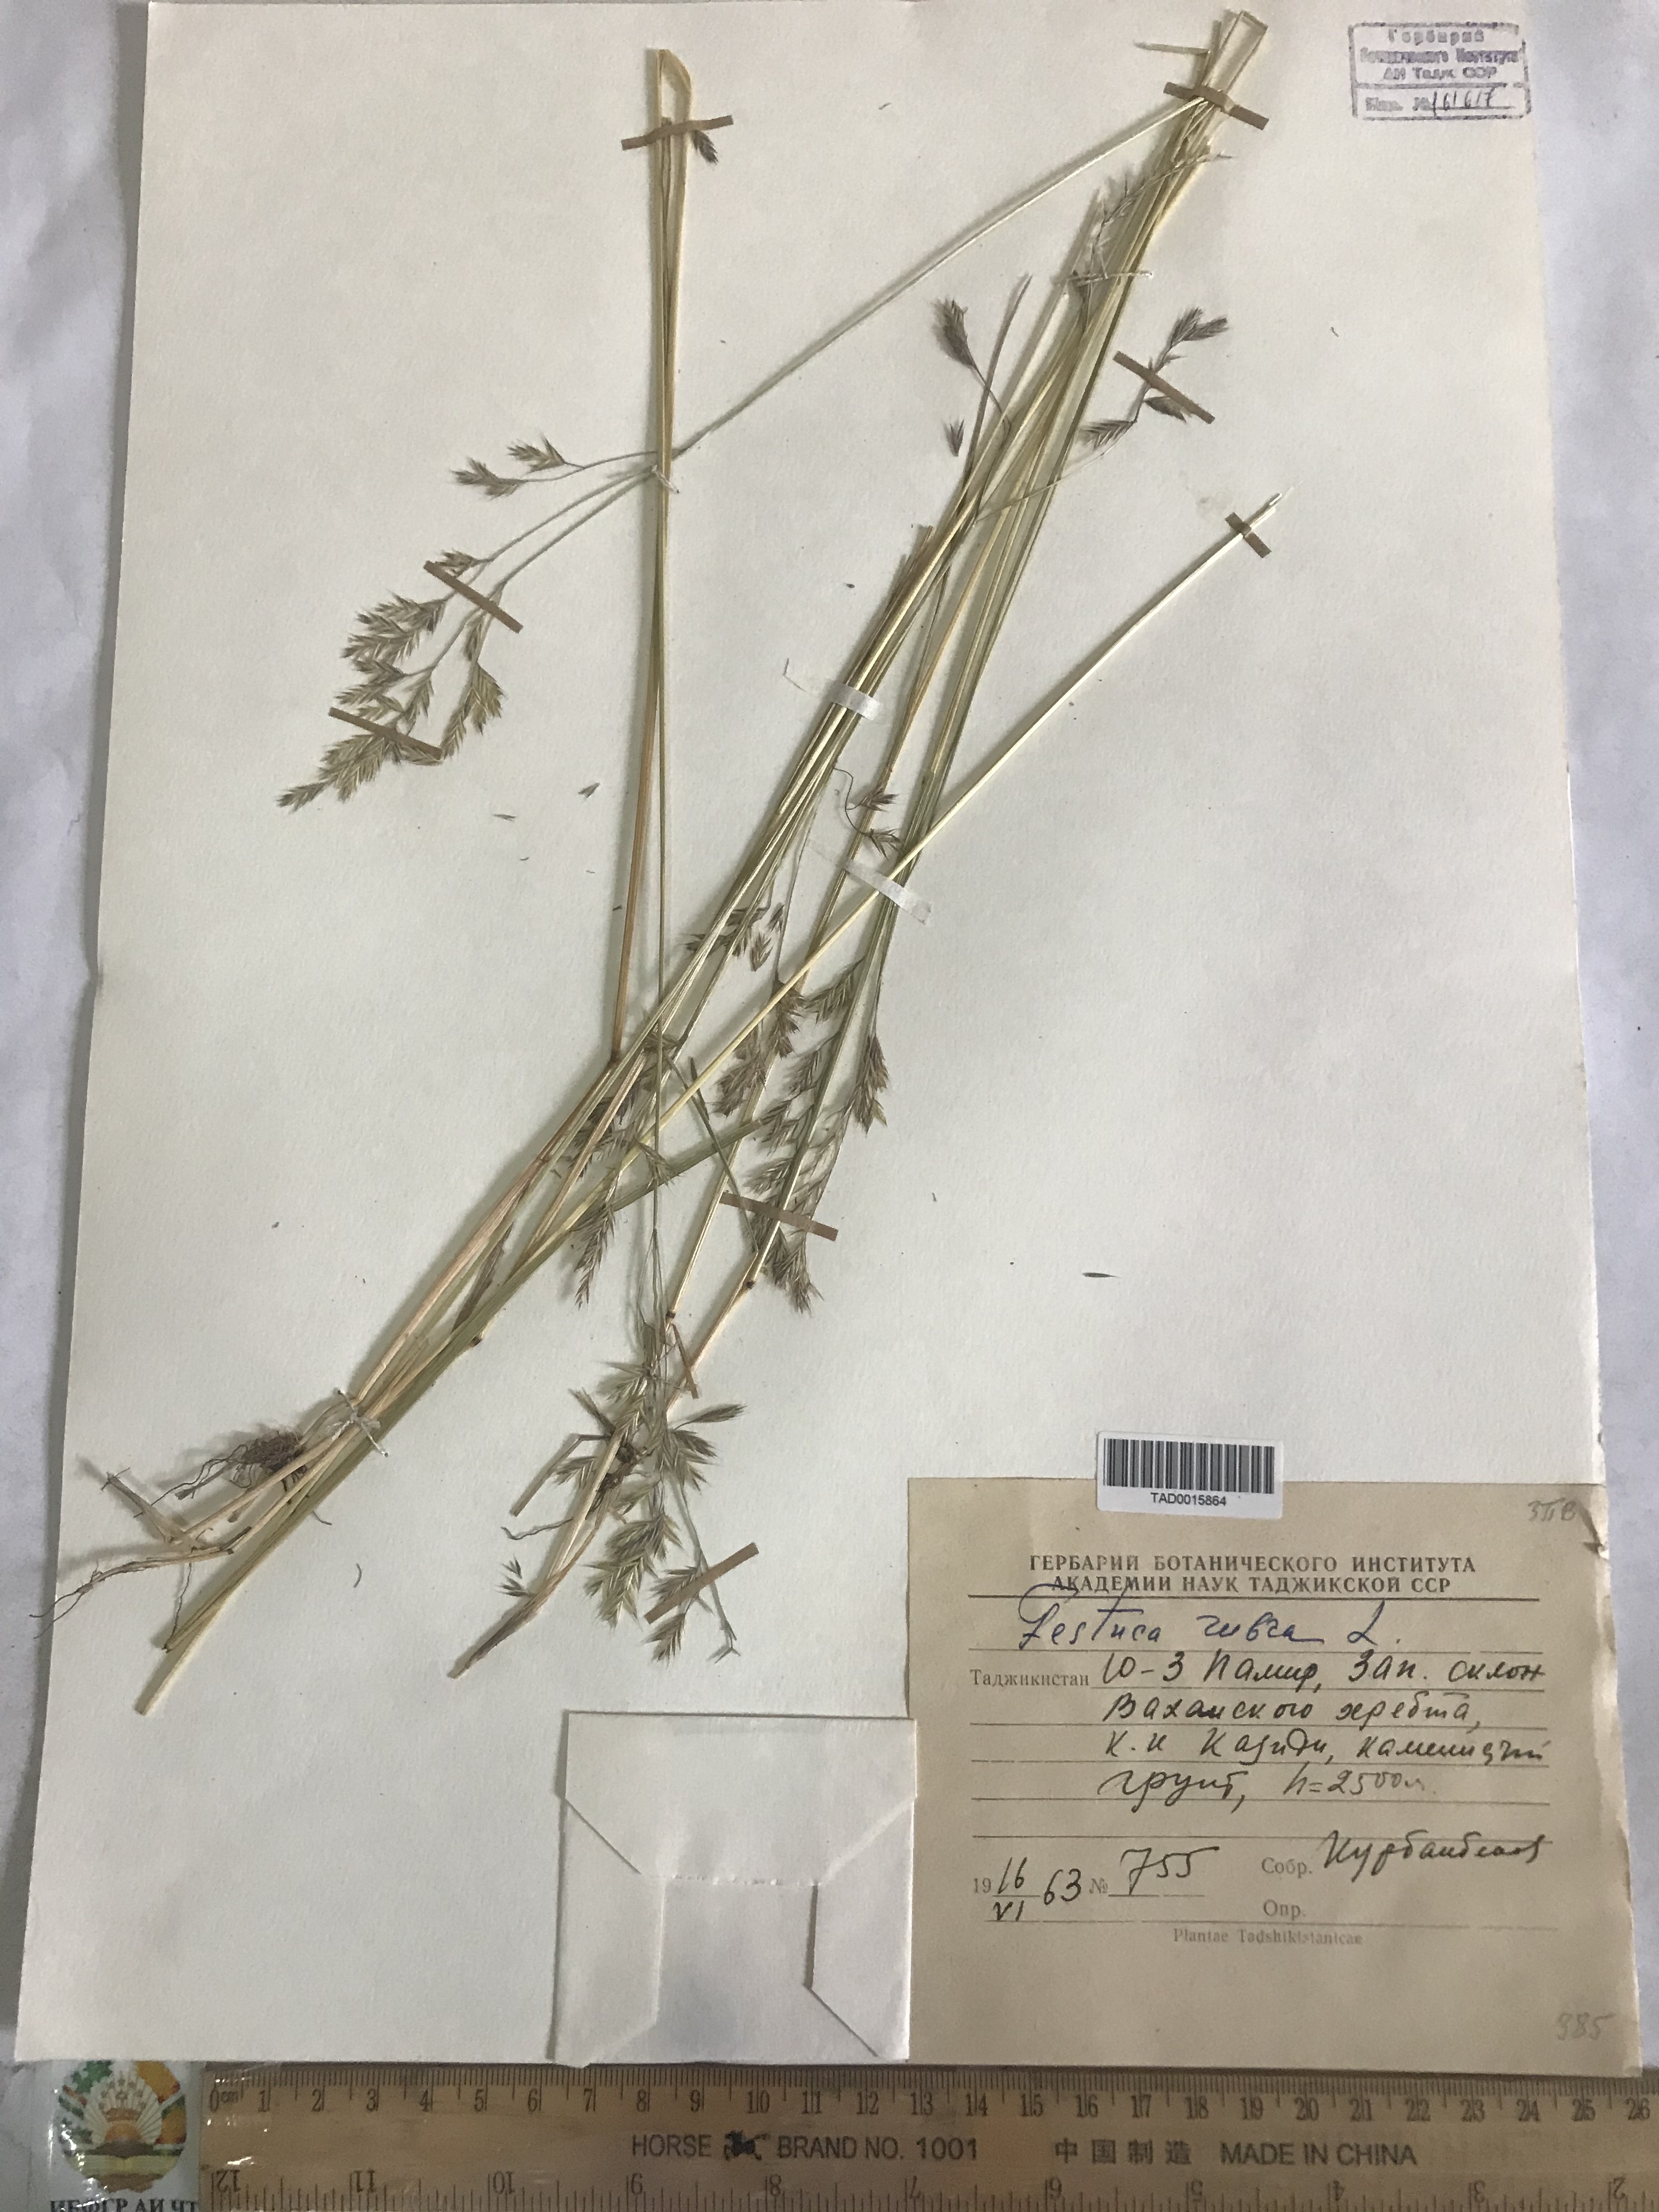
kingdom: Plantae
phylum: Tracheophyta
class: Liliopsida
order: Poales
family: Poaceae
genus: Festuca
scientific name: Festuca rubra
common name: Red fescue
